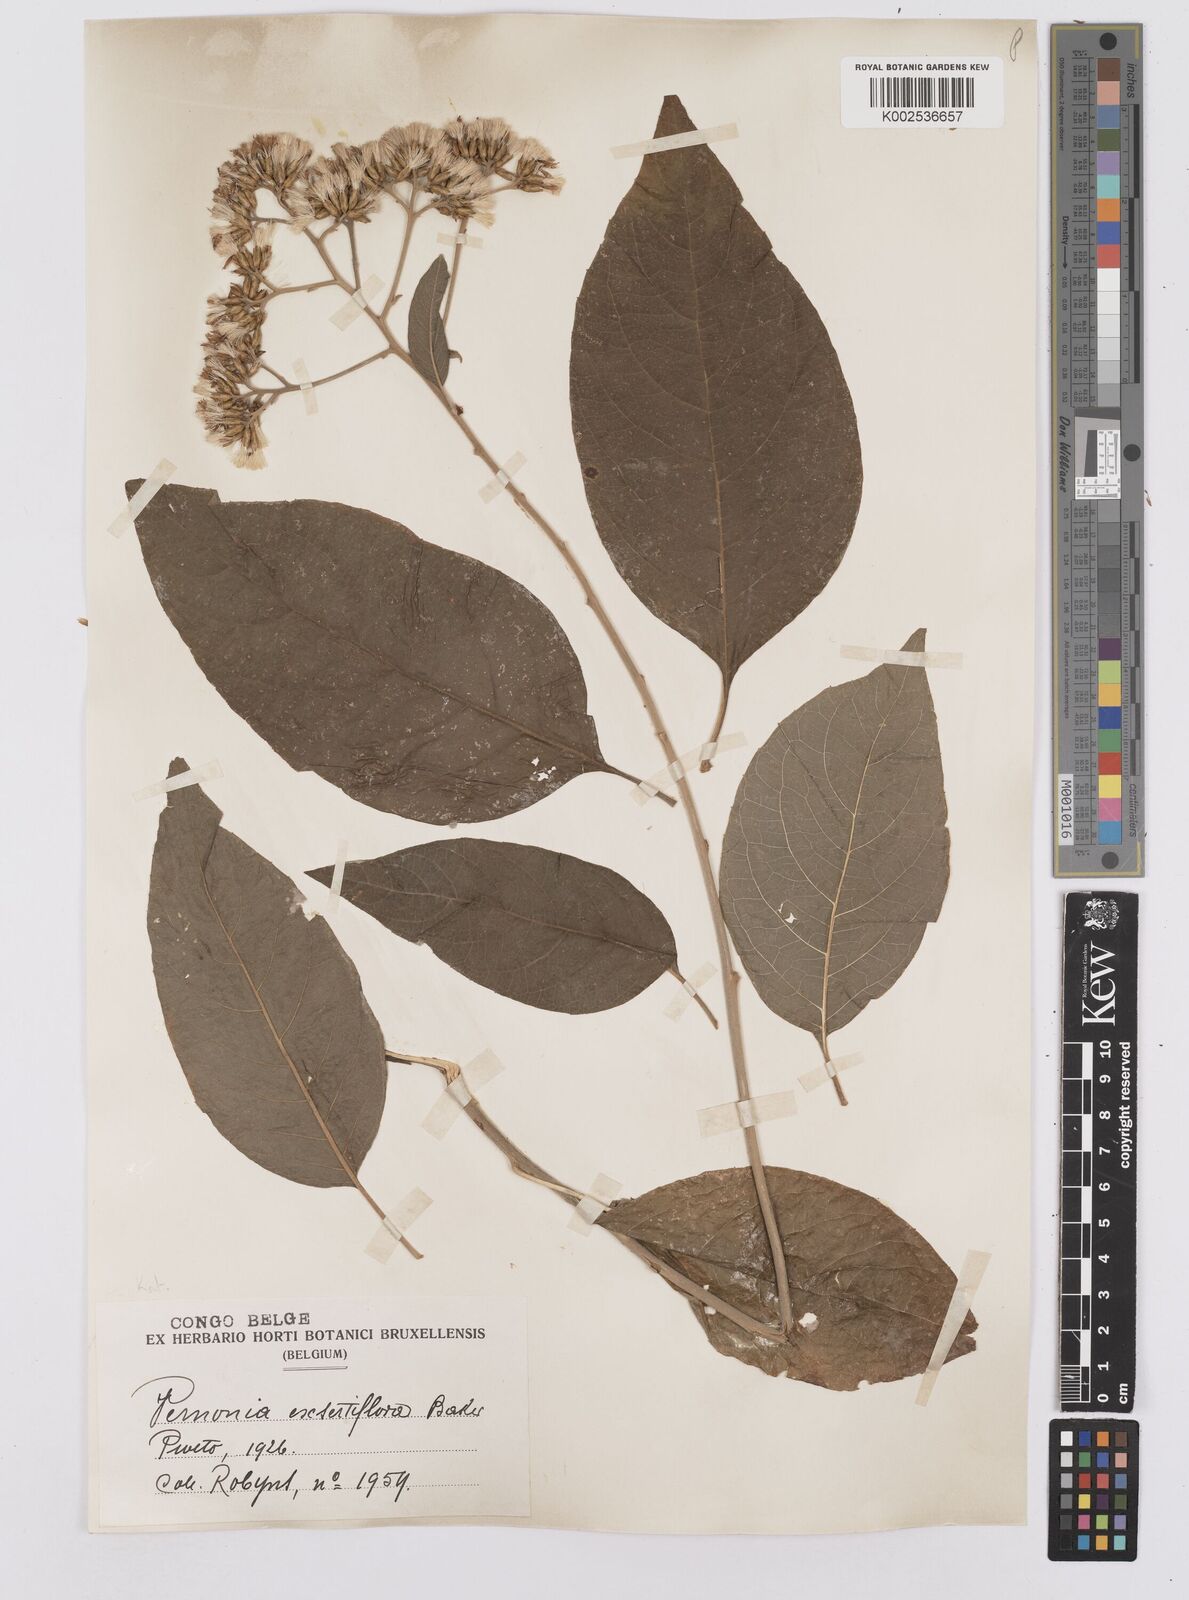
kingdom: Plantae
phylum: Tracheophyta
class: Magnoliopsida
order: Asterales
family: Asteraceae
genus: Gymnanthemum
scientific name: Gymnanthemum exsertiflorum
